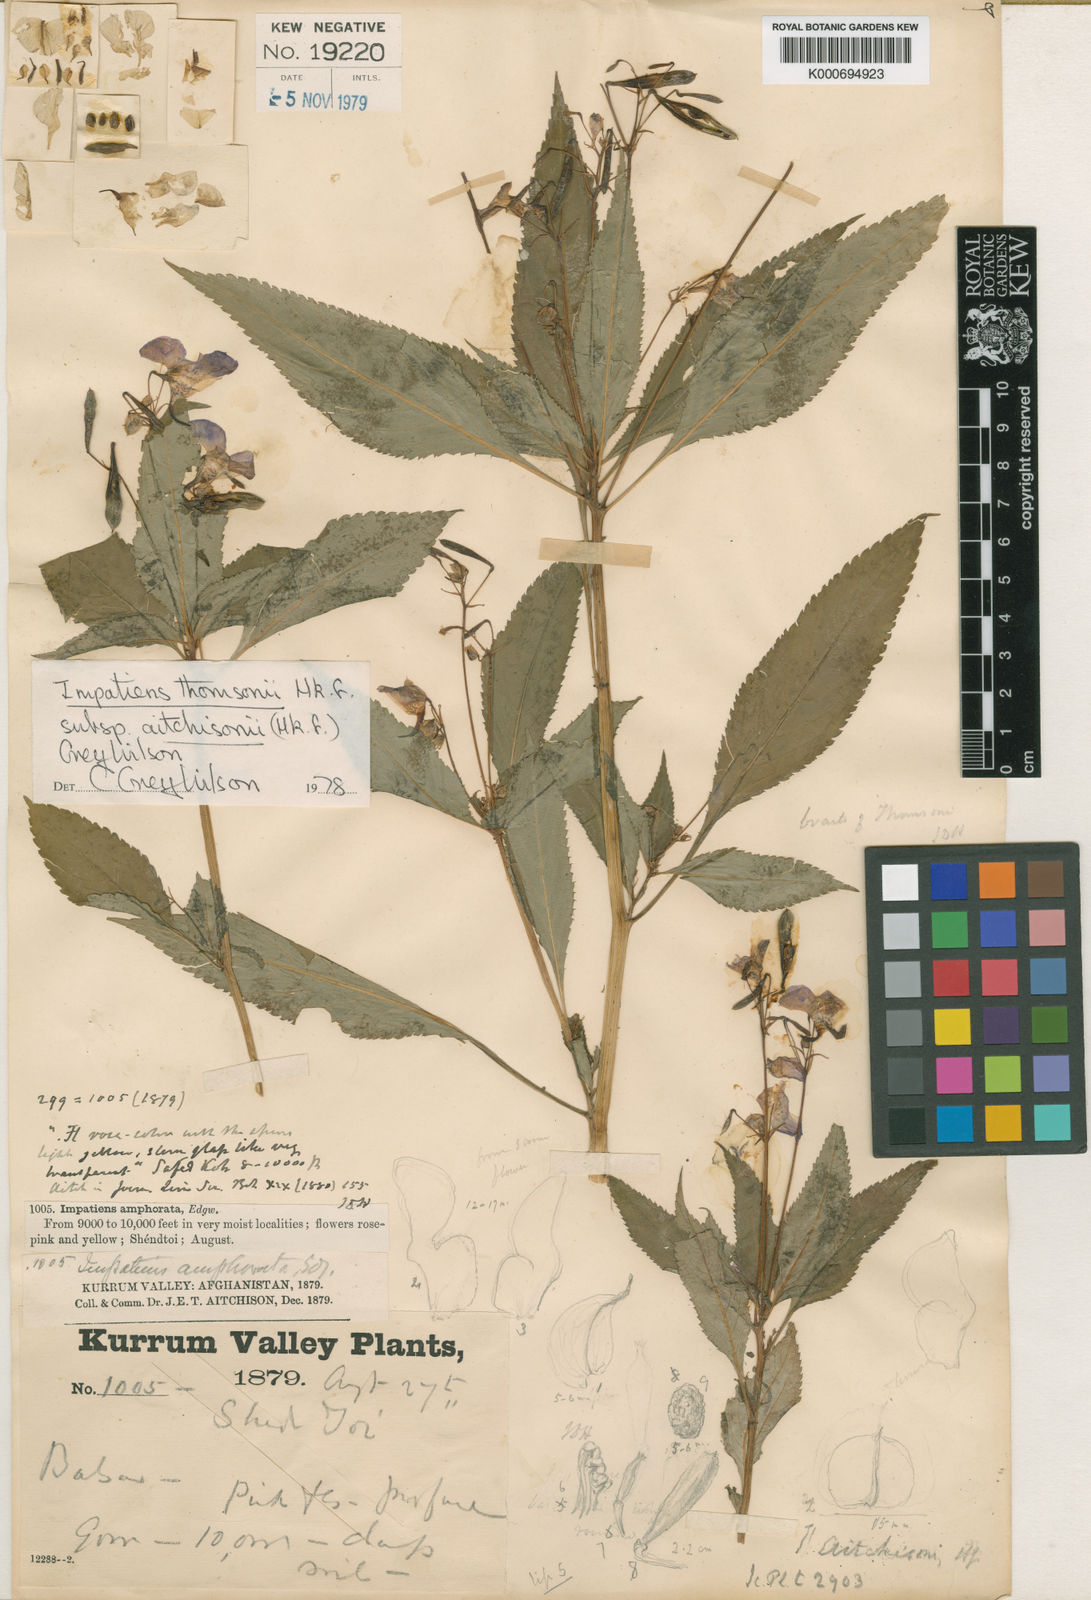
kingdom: Plantae
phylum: Tracheophyta
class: Magnoliopsida
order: Ericales
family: Balsaminaceae
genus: Impatiens
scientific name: Impatiens thomsonii
